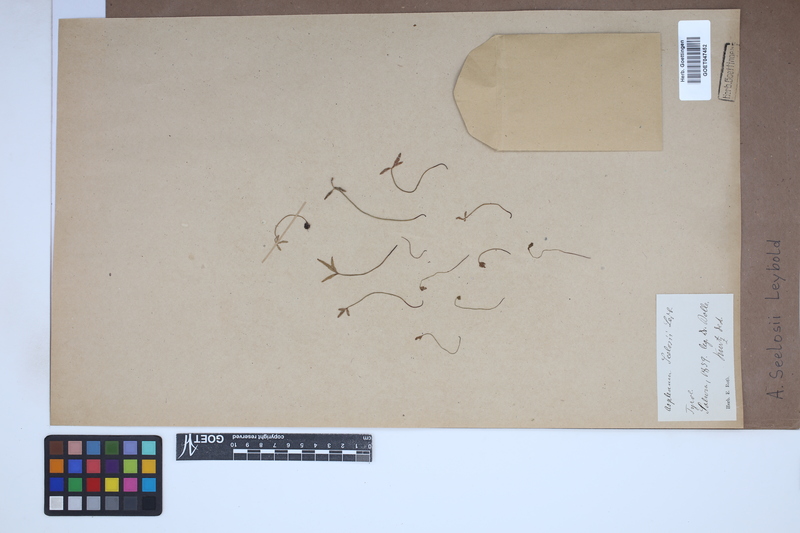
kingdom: Plantae
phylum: Tracheophyta
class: Polypodiopsida
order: Polypodiales
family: Aspleniaceae
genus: Asplenium
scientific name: Asplenium seelosii
